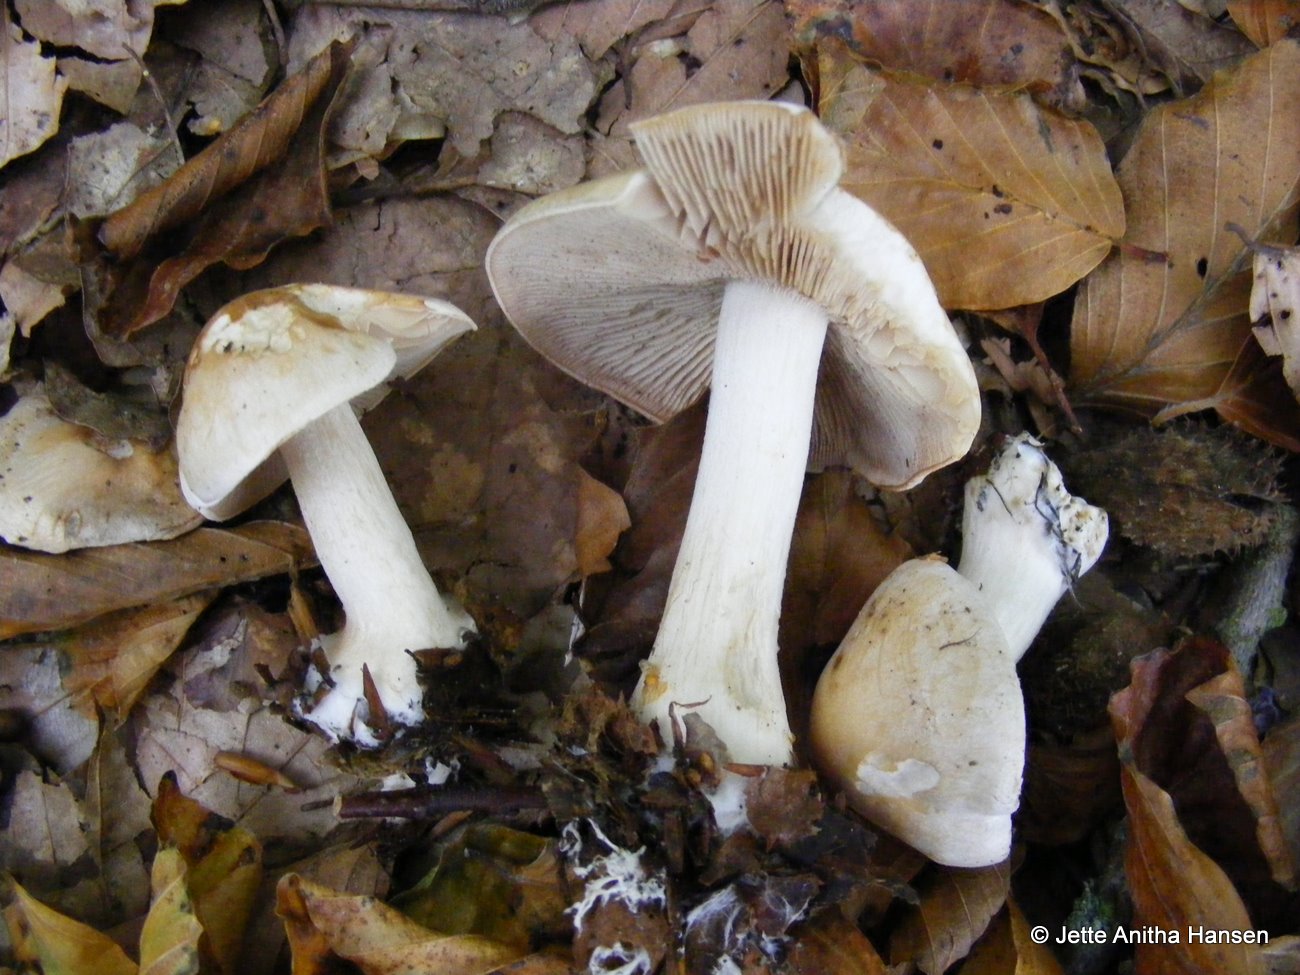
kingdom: Fungi
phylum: Basidiomycota
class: Agaricomycetes
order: Agaricales
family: Hymenogastraceae
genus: Hebeloma
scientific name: Hebeloma leucosarx
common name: højstokket tåreblad
